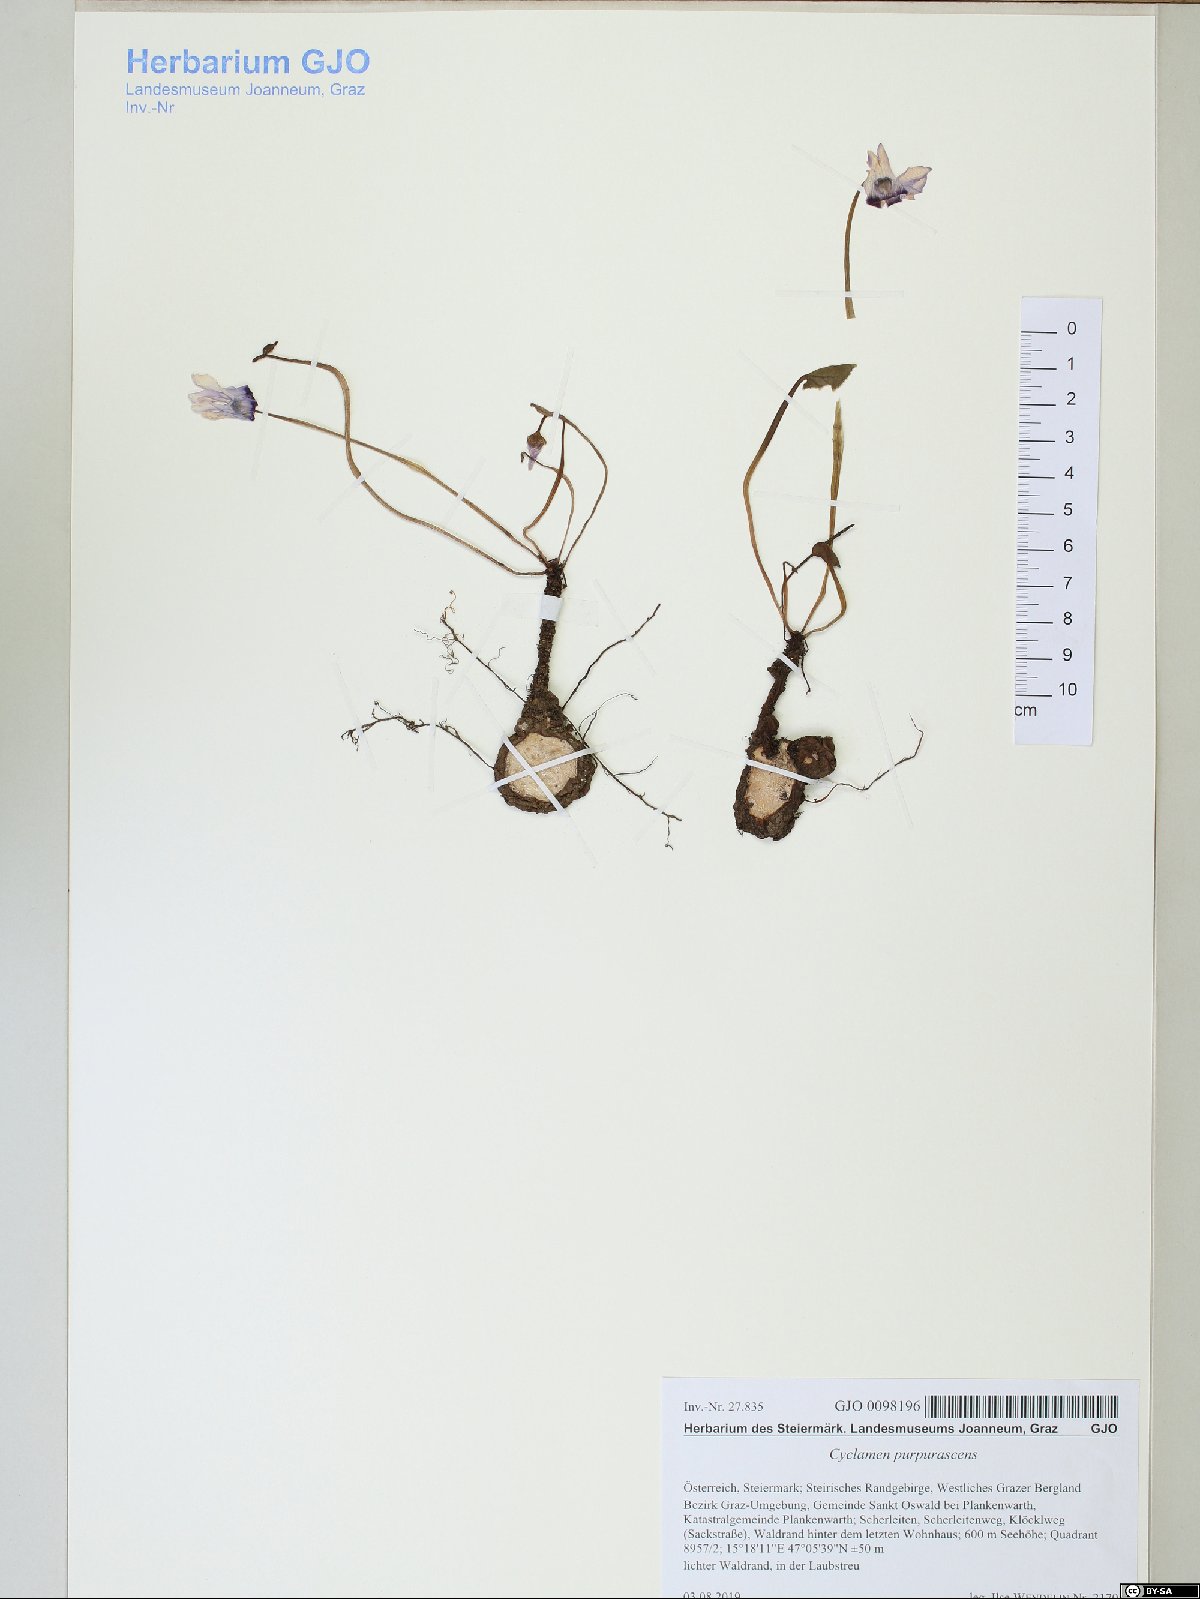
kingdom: Plantae
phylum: Tracheophyta
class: Magnoliopsida
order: Ericales
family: Primulaceae
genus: Cyclamen
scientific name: Cyclamen purpurascens
